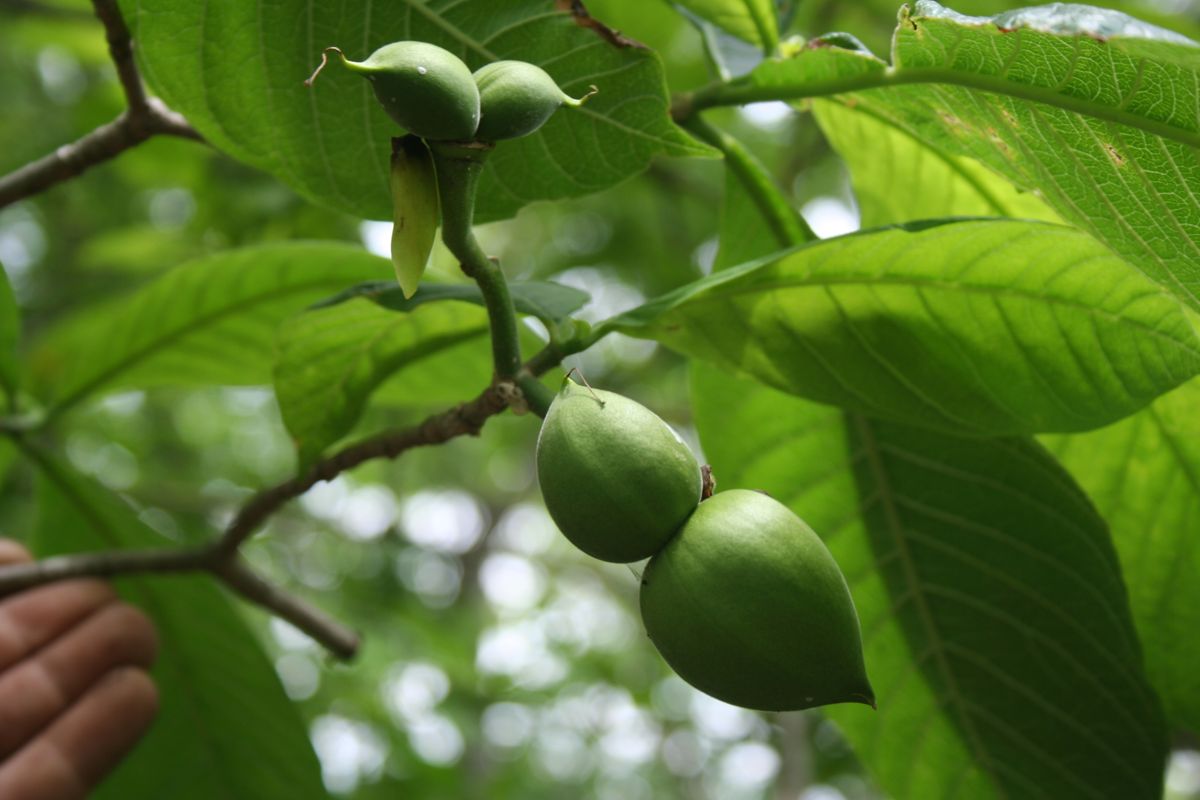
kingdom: Plantae
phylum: Tracheophyta
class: Magnoliopsida
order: Gentianales
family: Apocynaceae
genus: Tabernaemontana
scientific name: Tabernaemontana glabra
